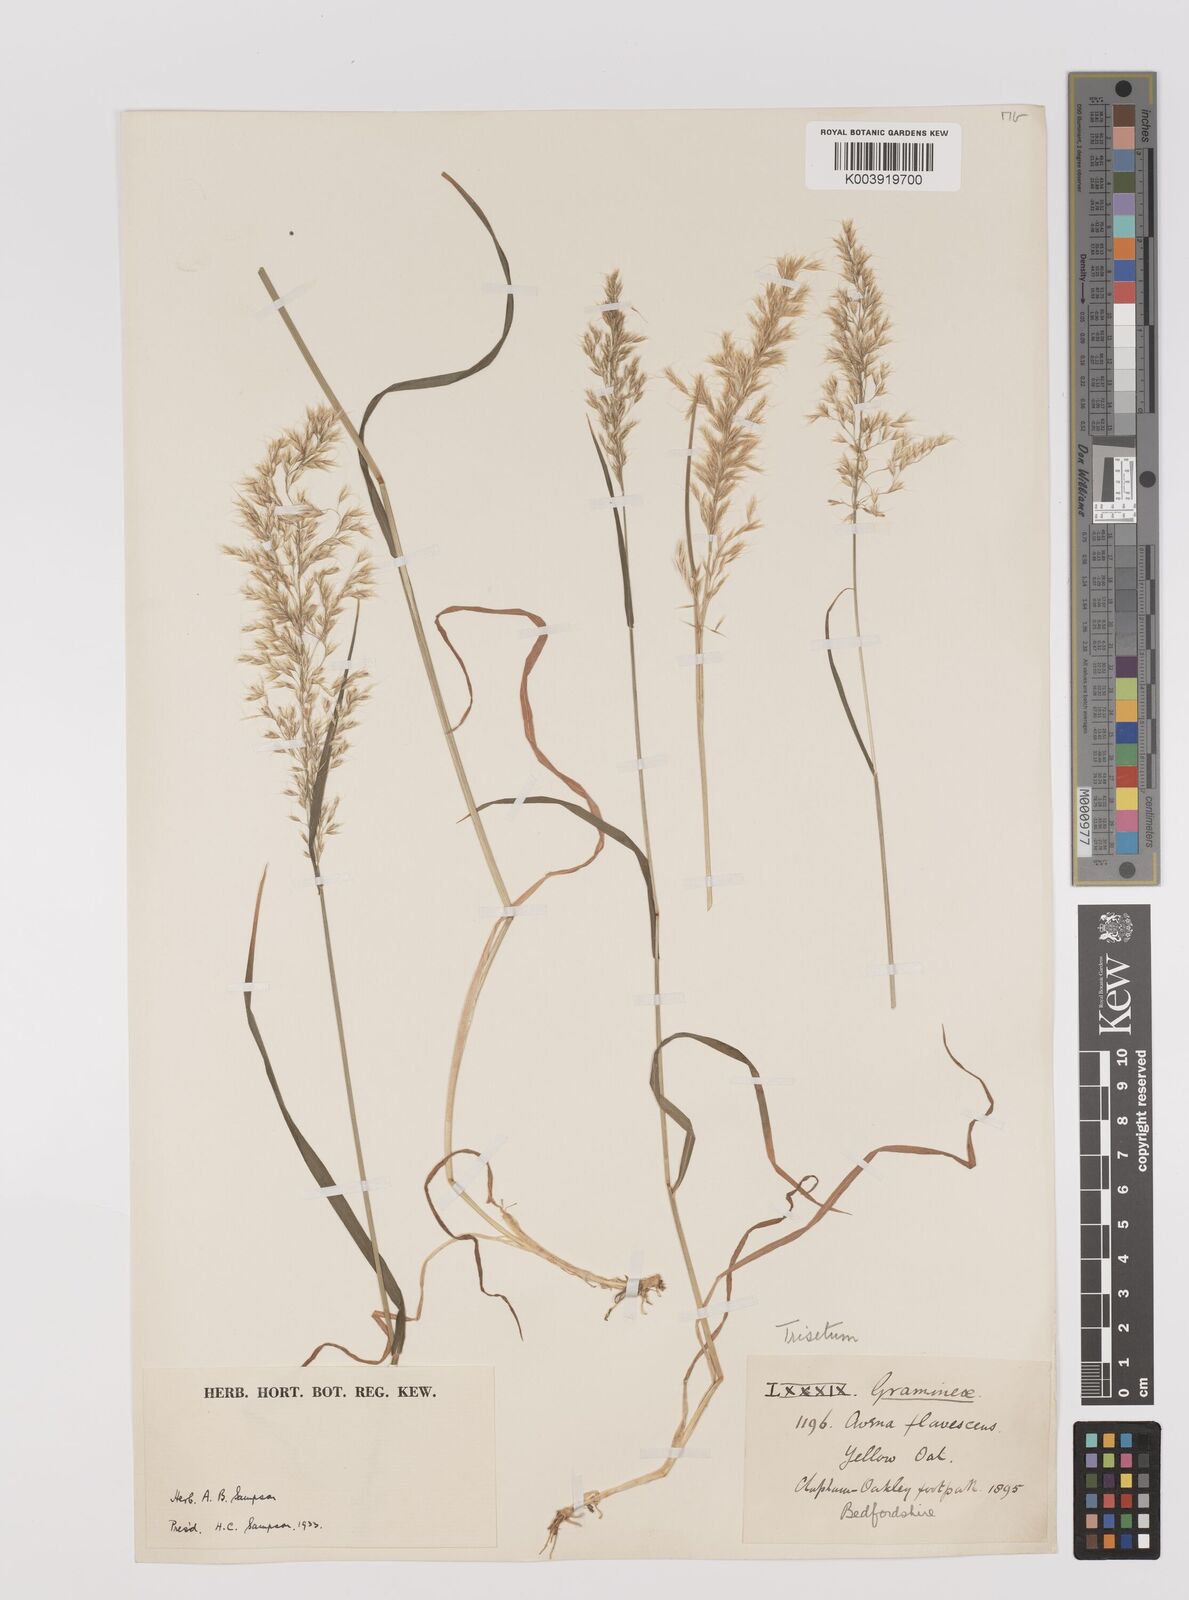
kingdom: Plantae
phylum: Tracheophyta
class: Liliopsida
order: Poales
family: Poaceae
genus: Trisetum
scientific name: Trisetum flavescens
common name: Yellow oat-grass
